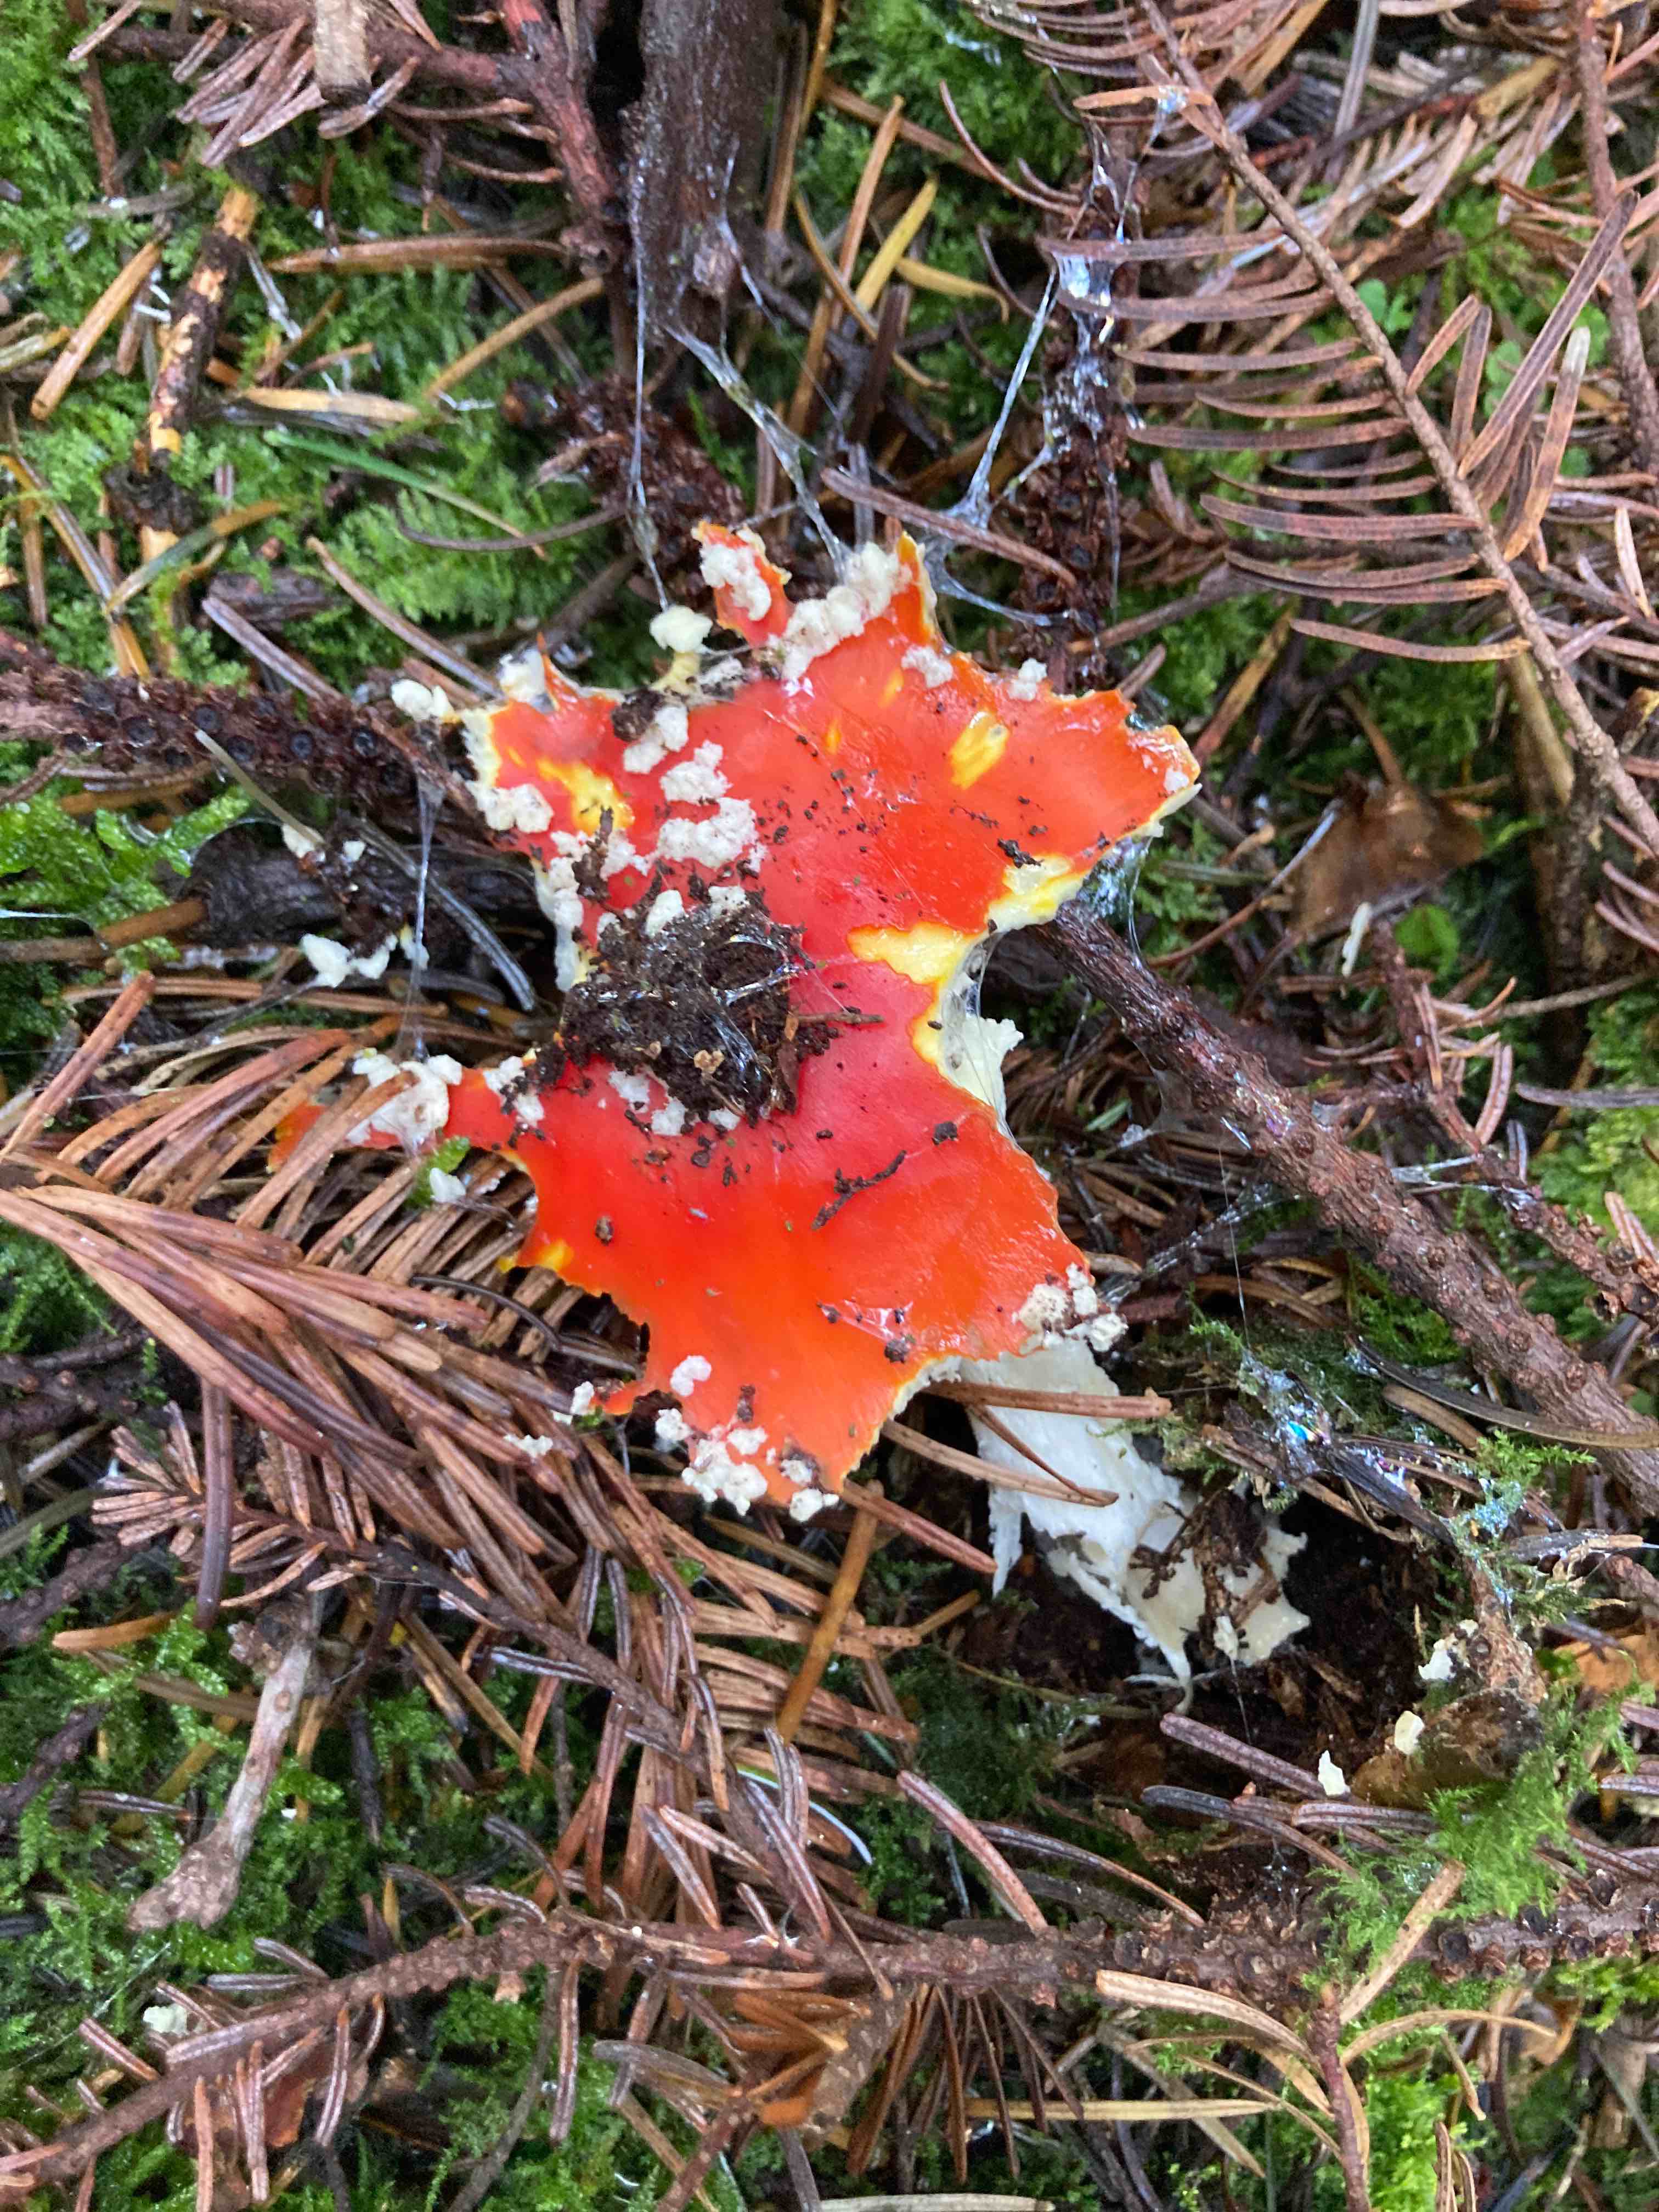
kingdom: Fungi
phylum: Basidiomycota
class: Agaricomycetes
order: Agaricales
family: Amanitaceae
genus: Amanita
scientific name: Amanita muscaria
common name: rød fluesvamp
